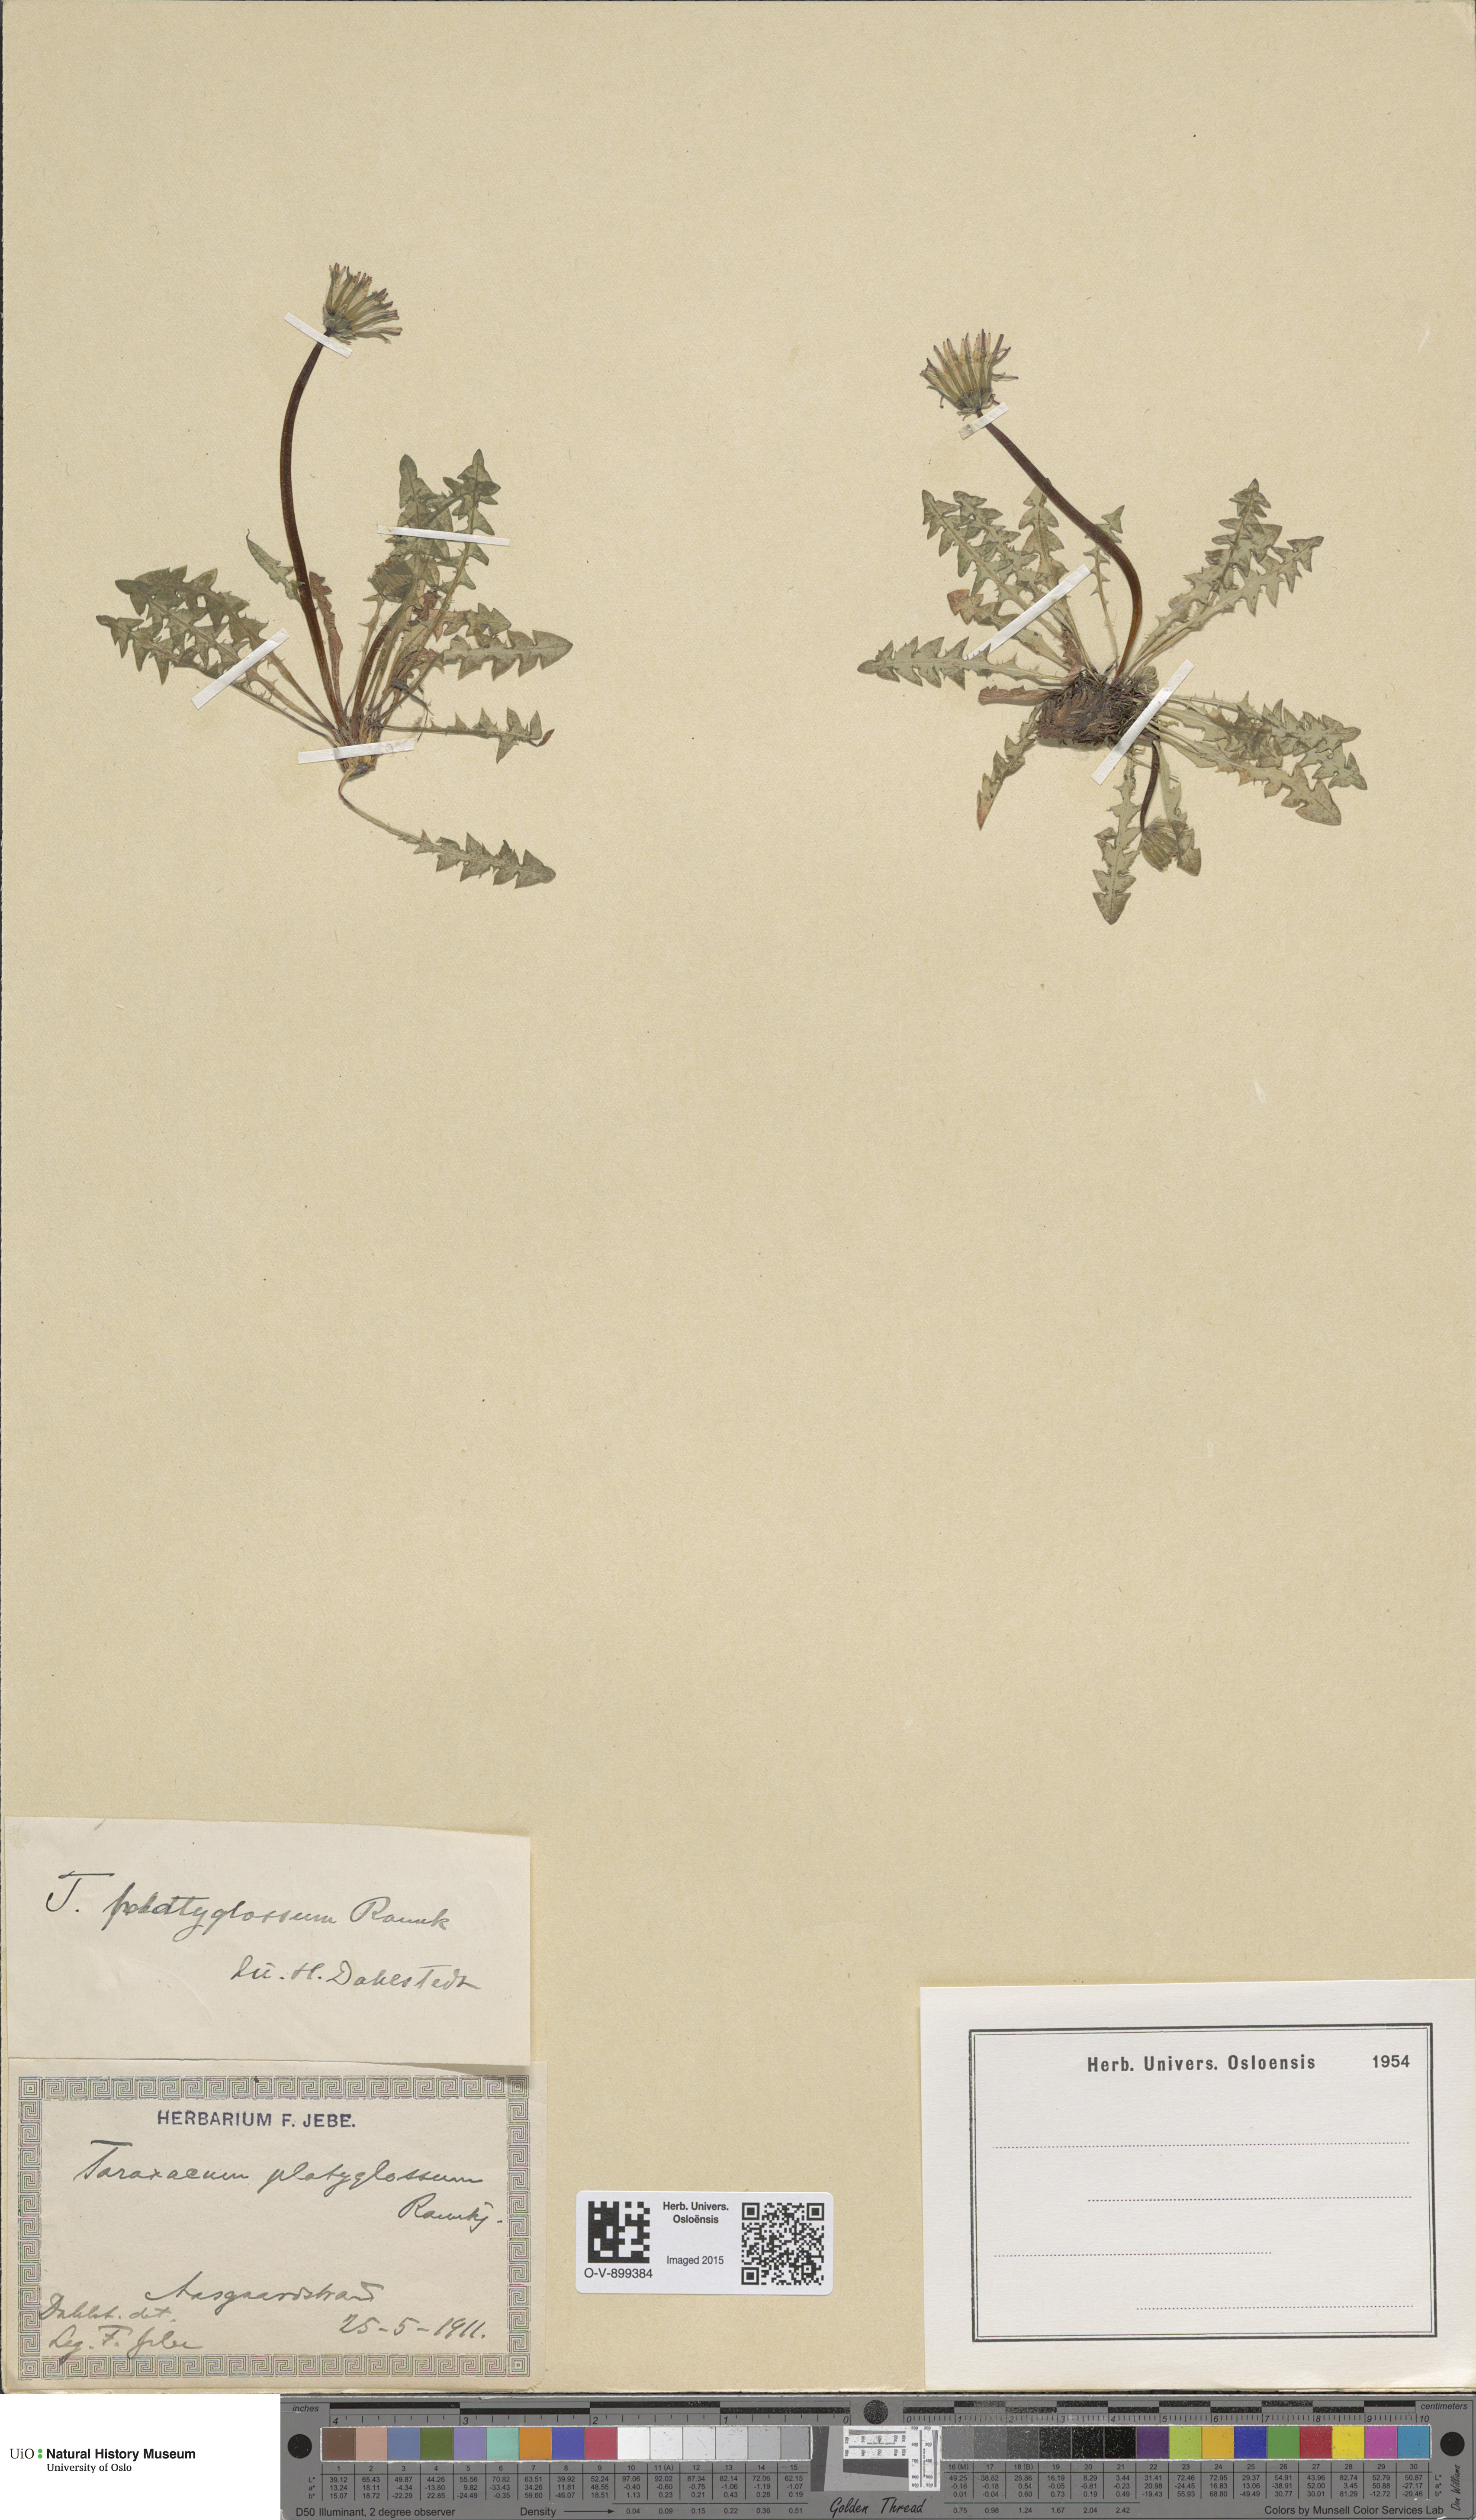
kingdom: Plantae
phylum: Tracheophyta
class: Magnoliopsida
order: Asterales
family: Asteraceae
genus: Taraxacum
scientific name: Taraxacum platyglossum
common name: Tongue-leaved dandelion
